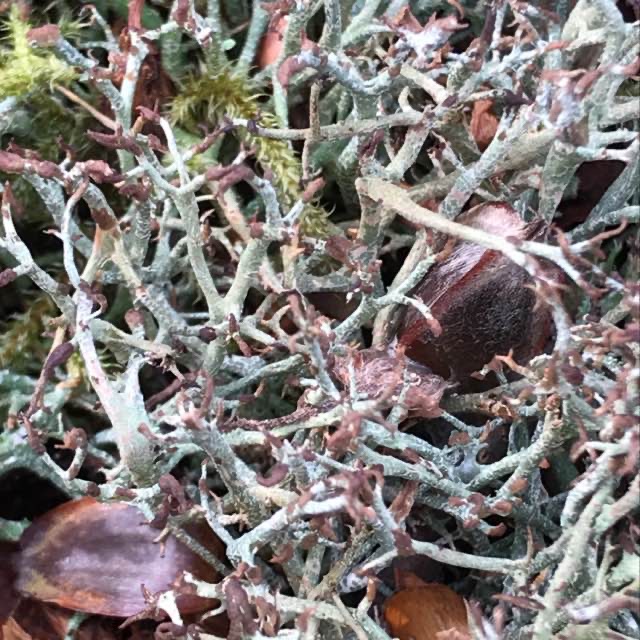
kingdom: Fungi
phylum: Ascomycota
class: Lecanoromycetes
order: Lecanorales
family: Cladoniaceae
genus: Cladonia
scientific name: Cladonia rangiformis
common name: Spættet bægerlav
